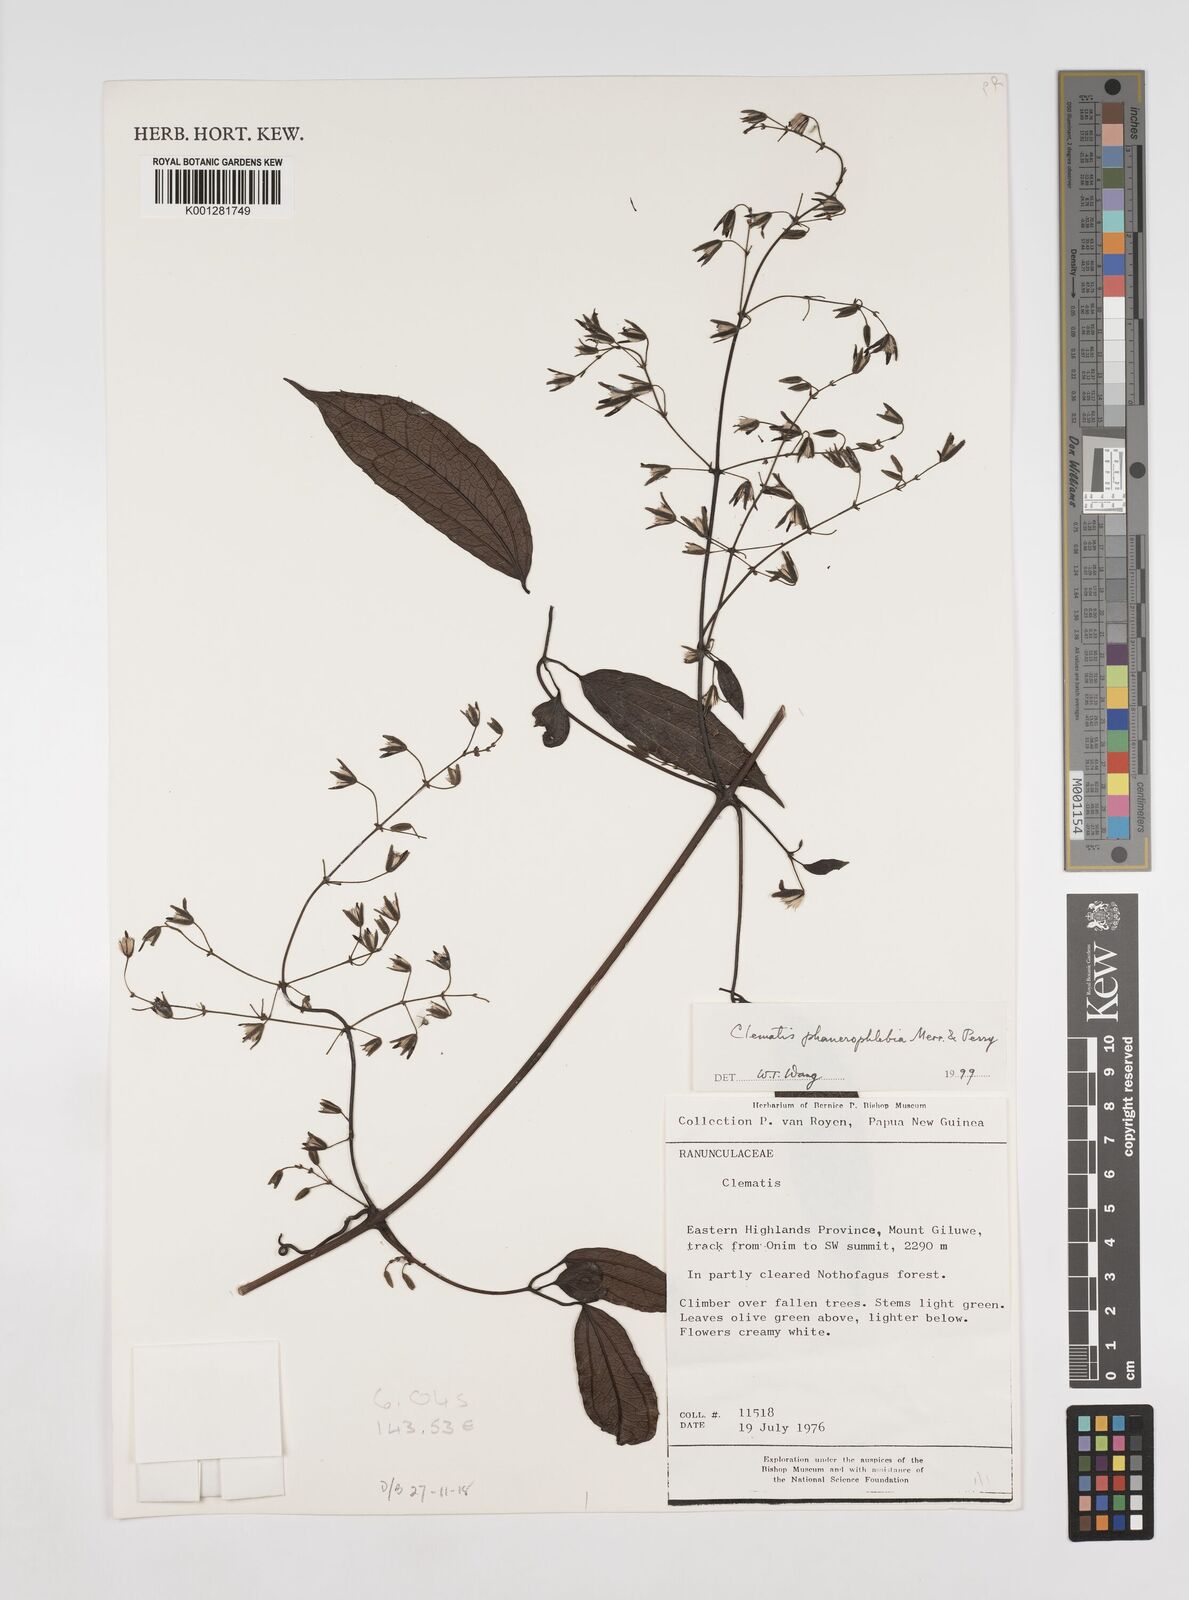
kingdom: Plantae
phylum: Tracheophyta
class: Magnoliopsida
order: Ranunculales
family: Ranunculaceae
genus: Clematis
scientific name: Clematis phanerophlebia
